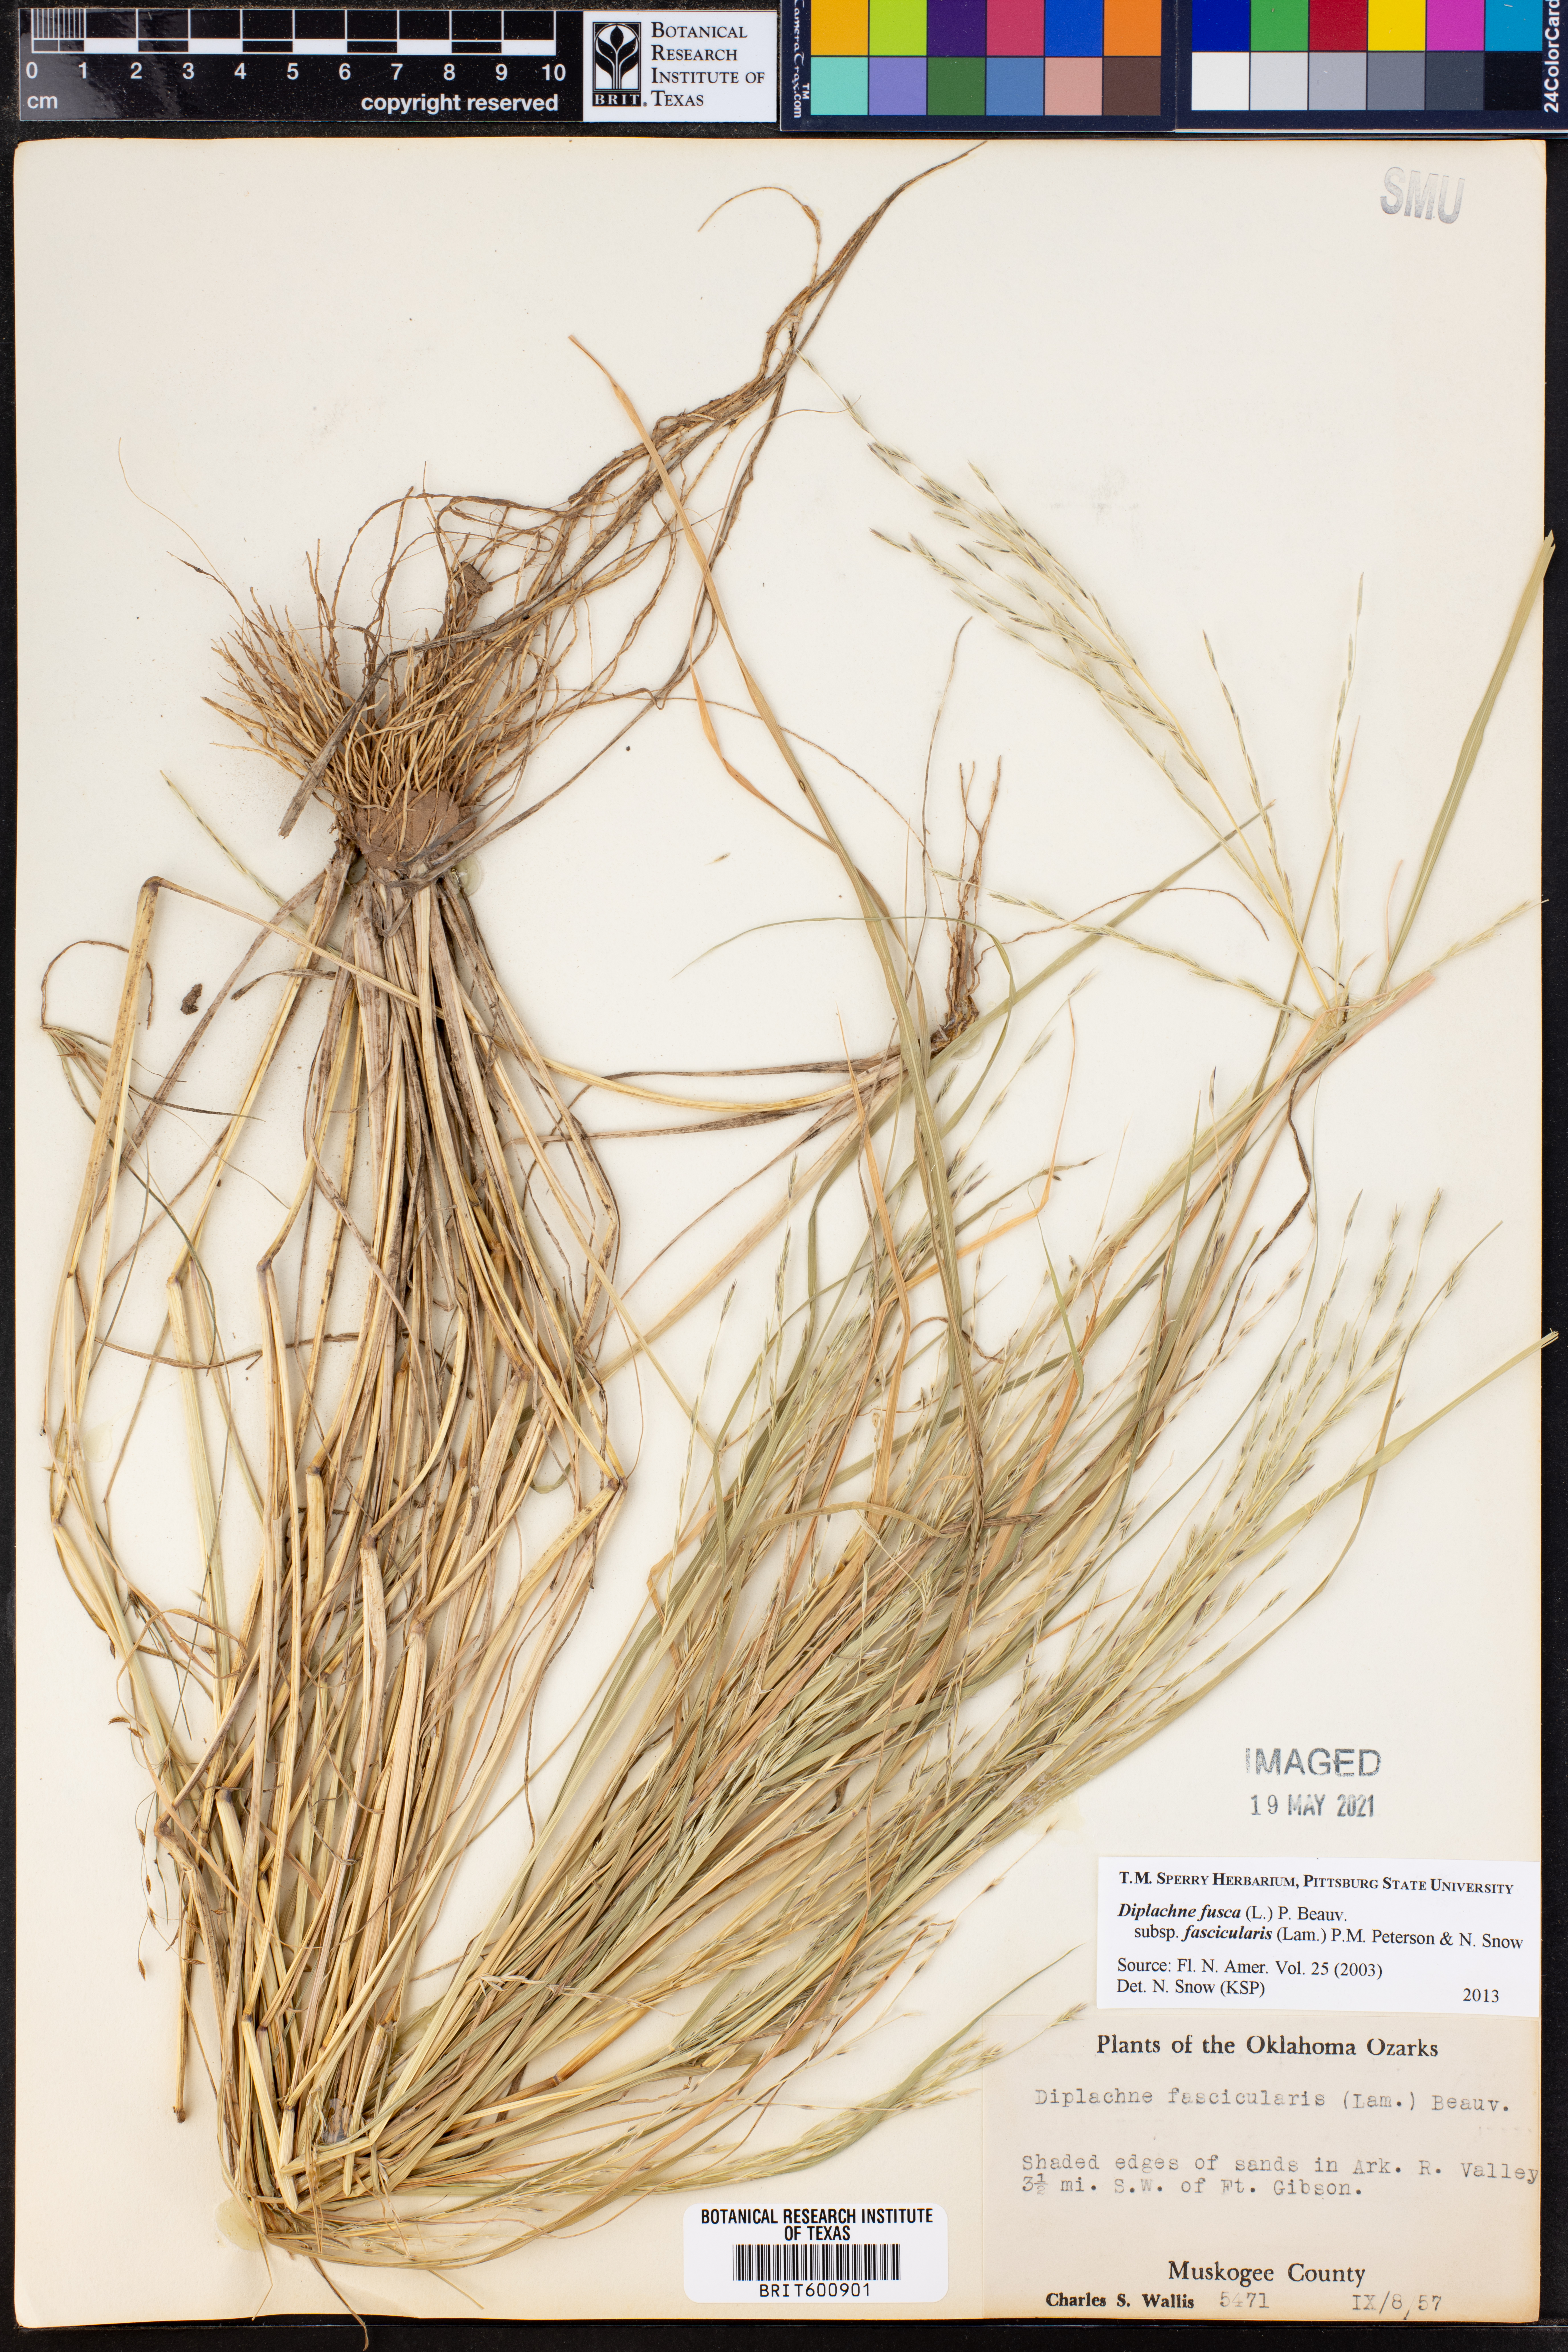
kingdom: Plantae
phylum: Tracheophyta
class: Liliopsida
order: Poales
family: Poaceae
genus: Diplachne
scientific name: Diplachne fusca
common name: Brown beetle grass
